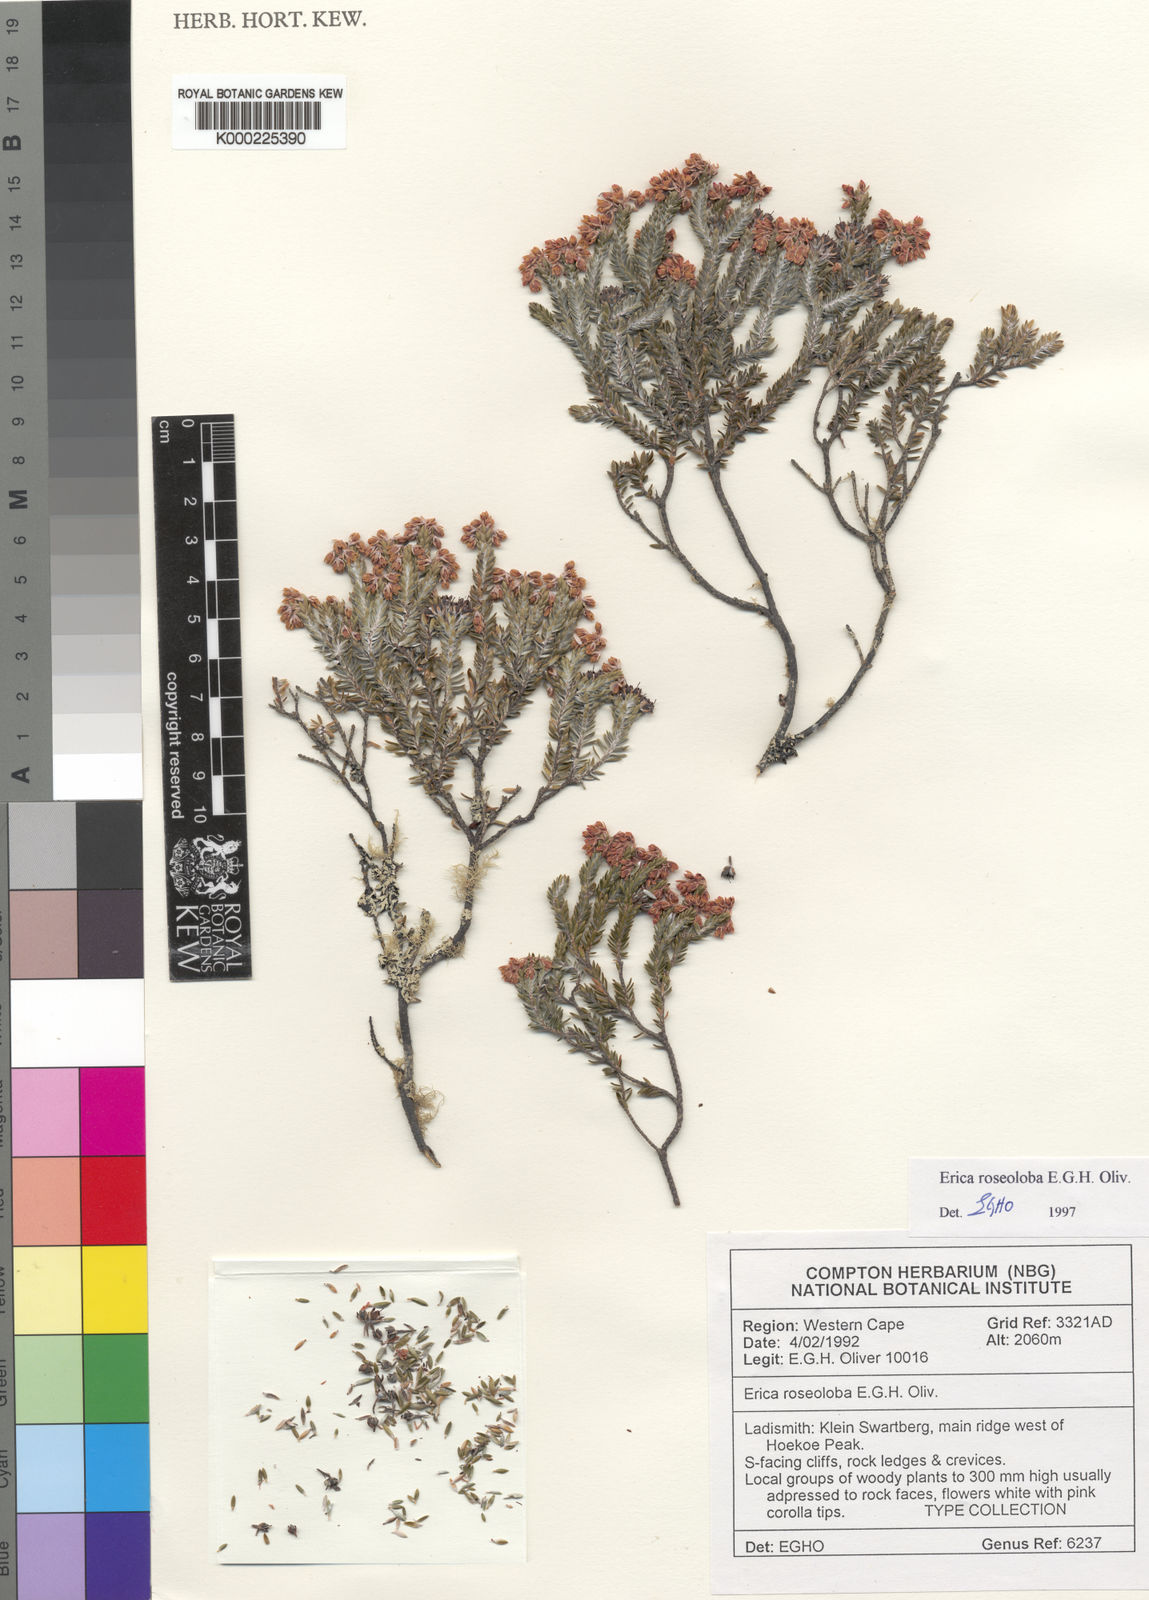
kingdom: Plantae
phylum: Tracheophyta
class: Magnoliopsida
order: Ericales
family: Ericaceae
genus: Erica
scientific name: Erica roseoloba
